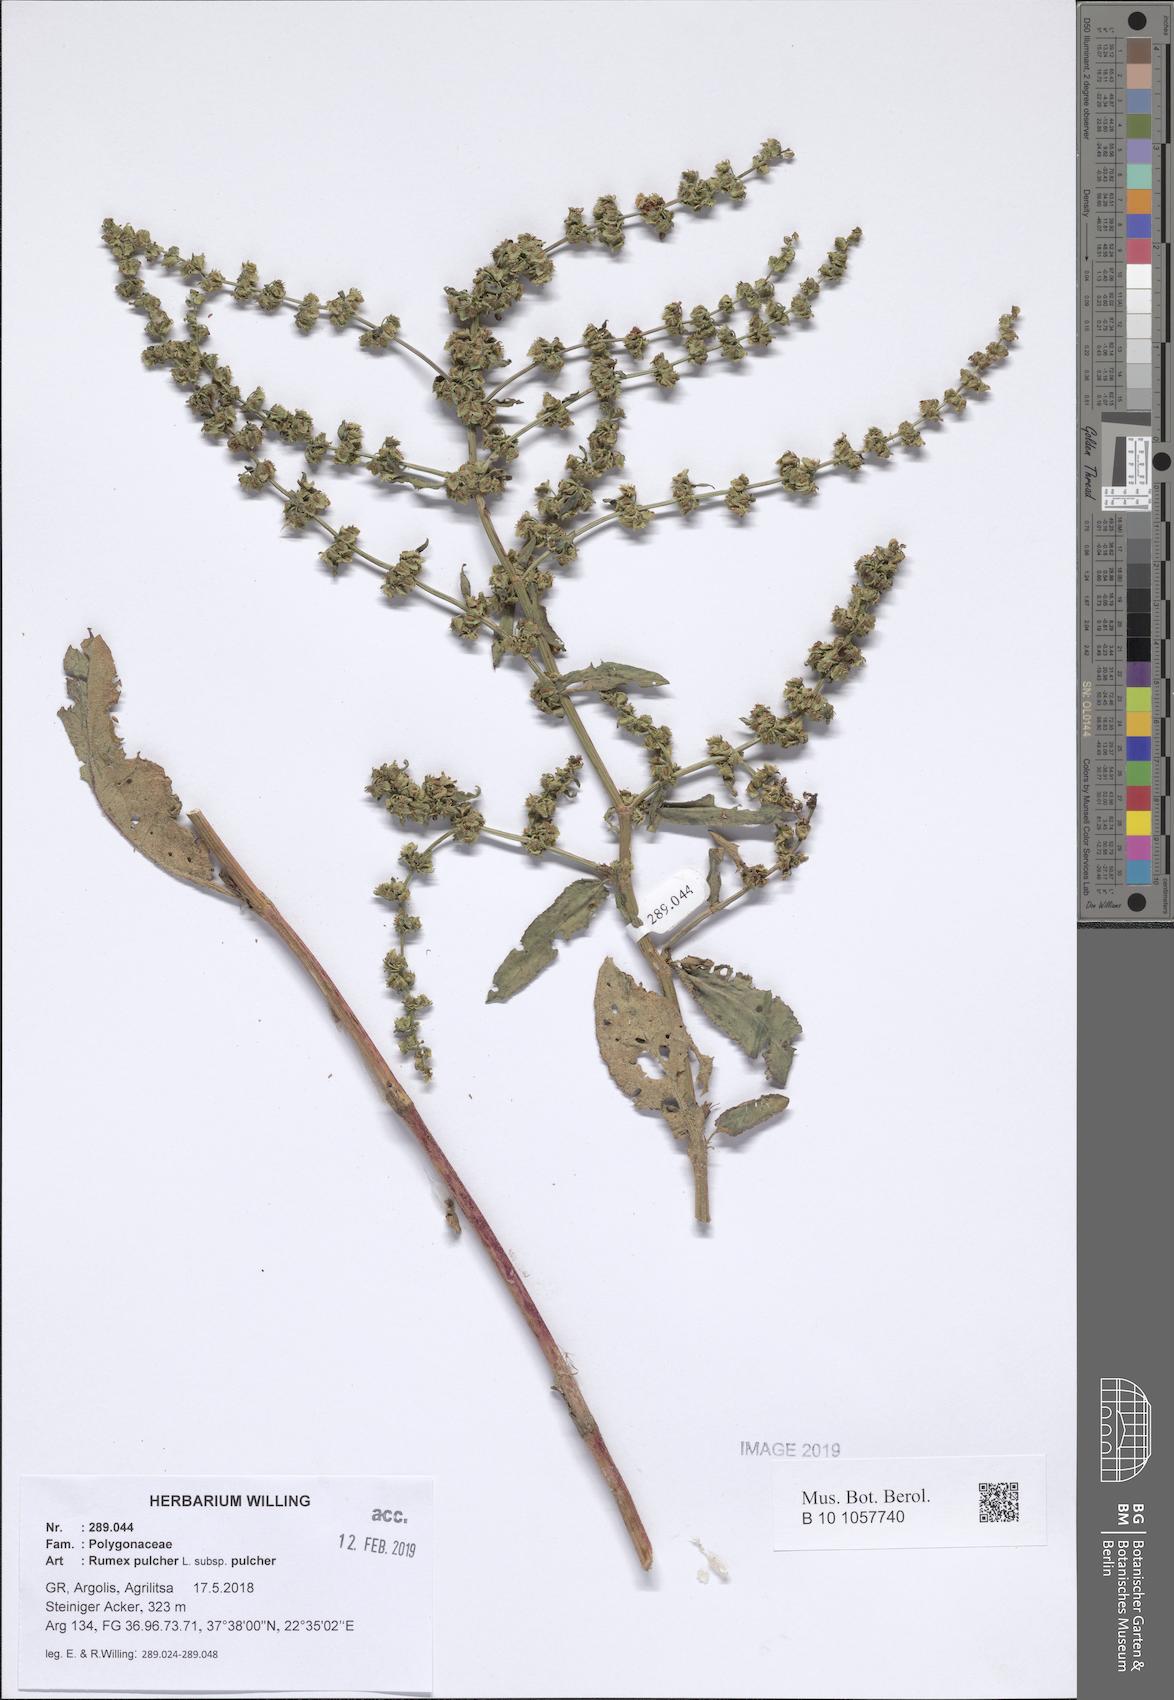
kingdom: Plantae
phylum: Tracheophyta
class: Magnoliopsida
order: Caryophyllales
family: Polygonaceae
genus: Rumex
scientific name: Rumex pulcher
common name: Fiddle dock
